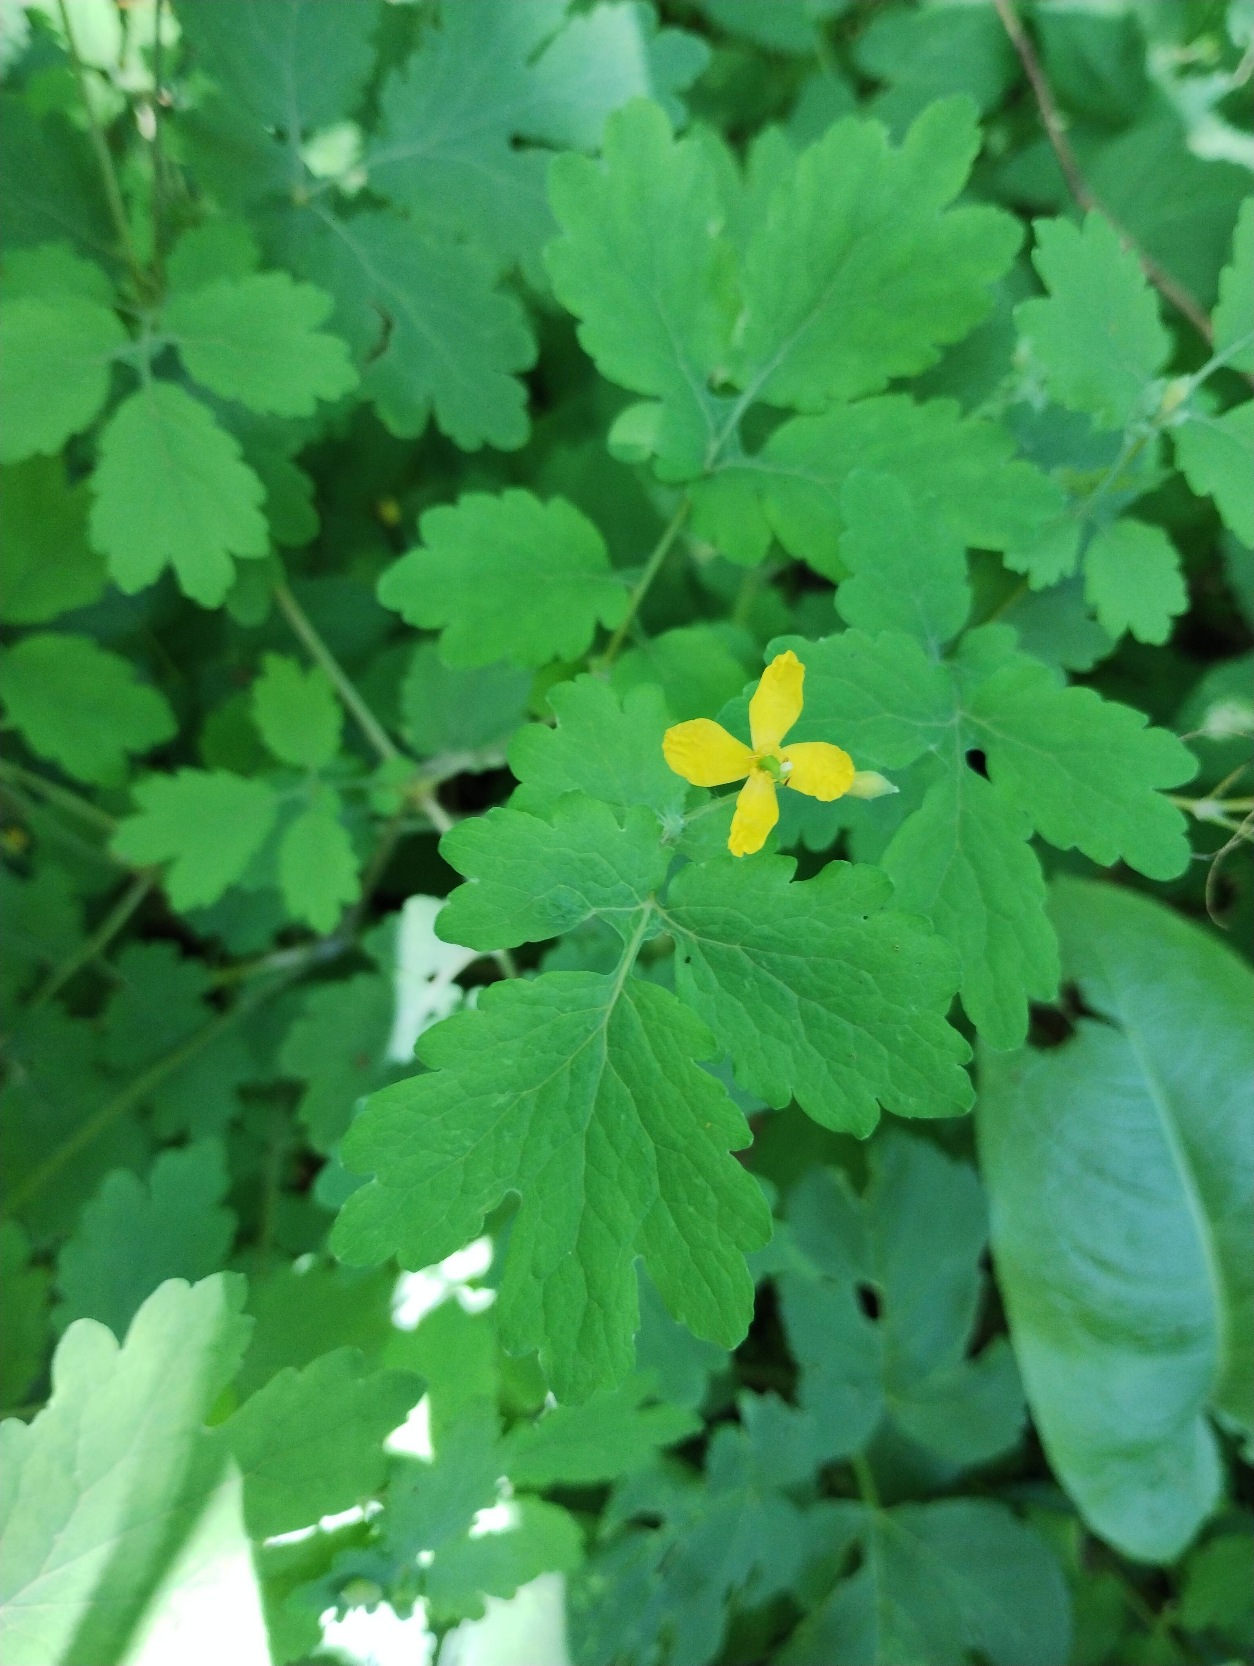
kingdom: Plantae
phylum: Tracheophyta
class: Magnoliopsida
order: Ranunculales
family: Papaveraceae
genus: Chelidonium
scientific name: Chelidonium majus
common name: Svaleurt
